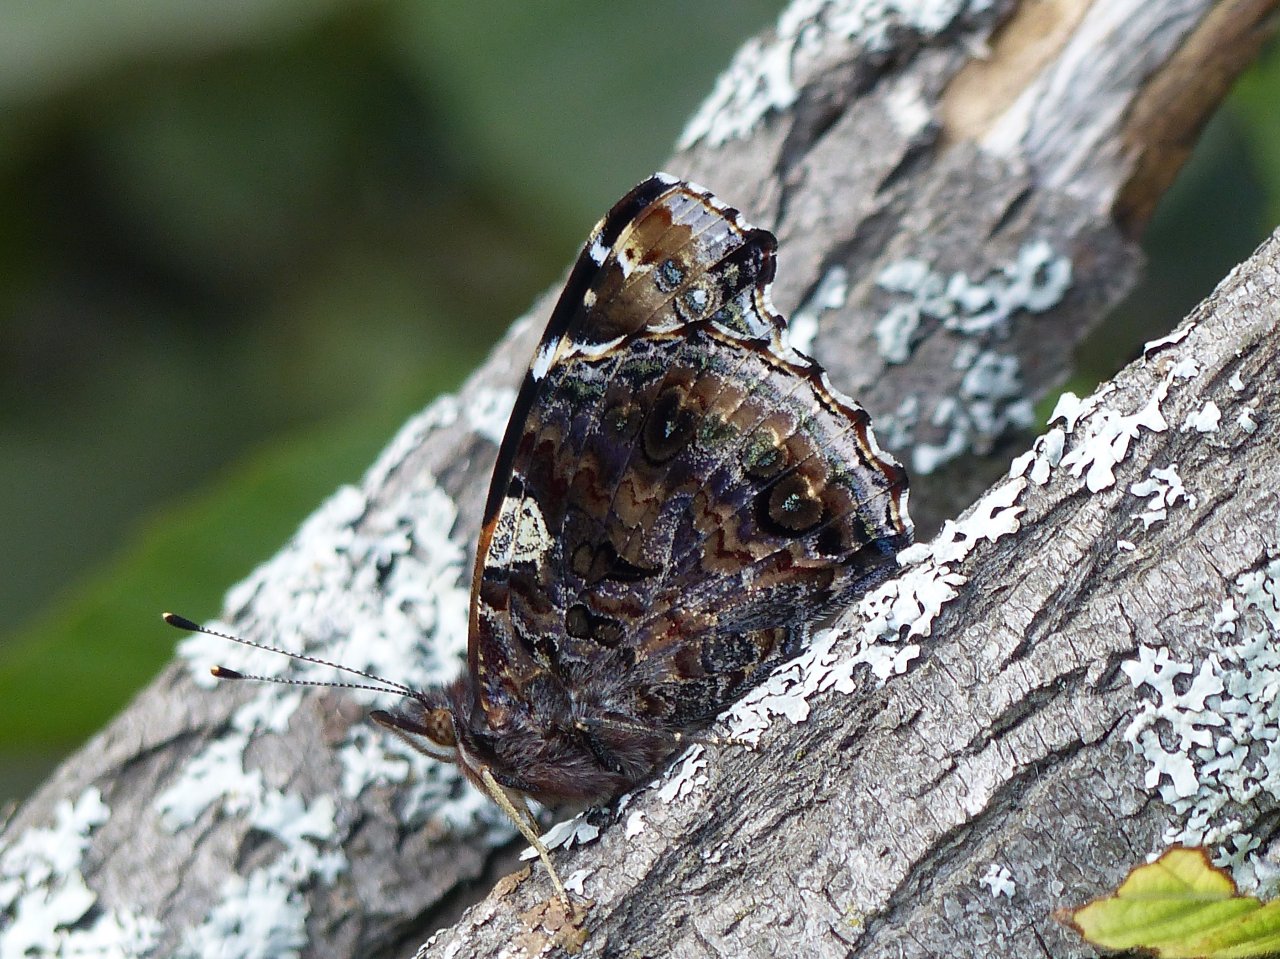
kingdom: Animalia
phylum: Arthropoda
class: Insecta
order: Lepidoptera
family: Nymphalidae
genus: Vanessa
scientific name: Vanessa atalanta
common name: Red Admiral
